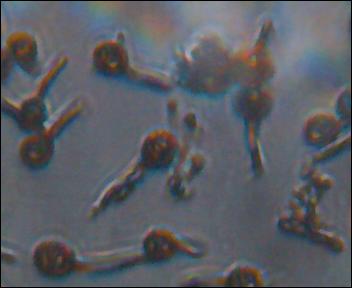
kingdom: Fungi
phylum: Basidiomycota
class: Agaricomycetes
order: Agaricales
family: Lycoperdaceae
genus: Bovista
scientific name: Bovista nigrescens
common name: sortagtig bovist
